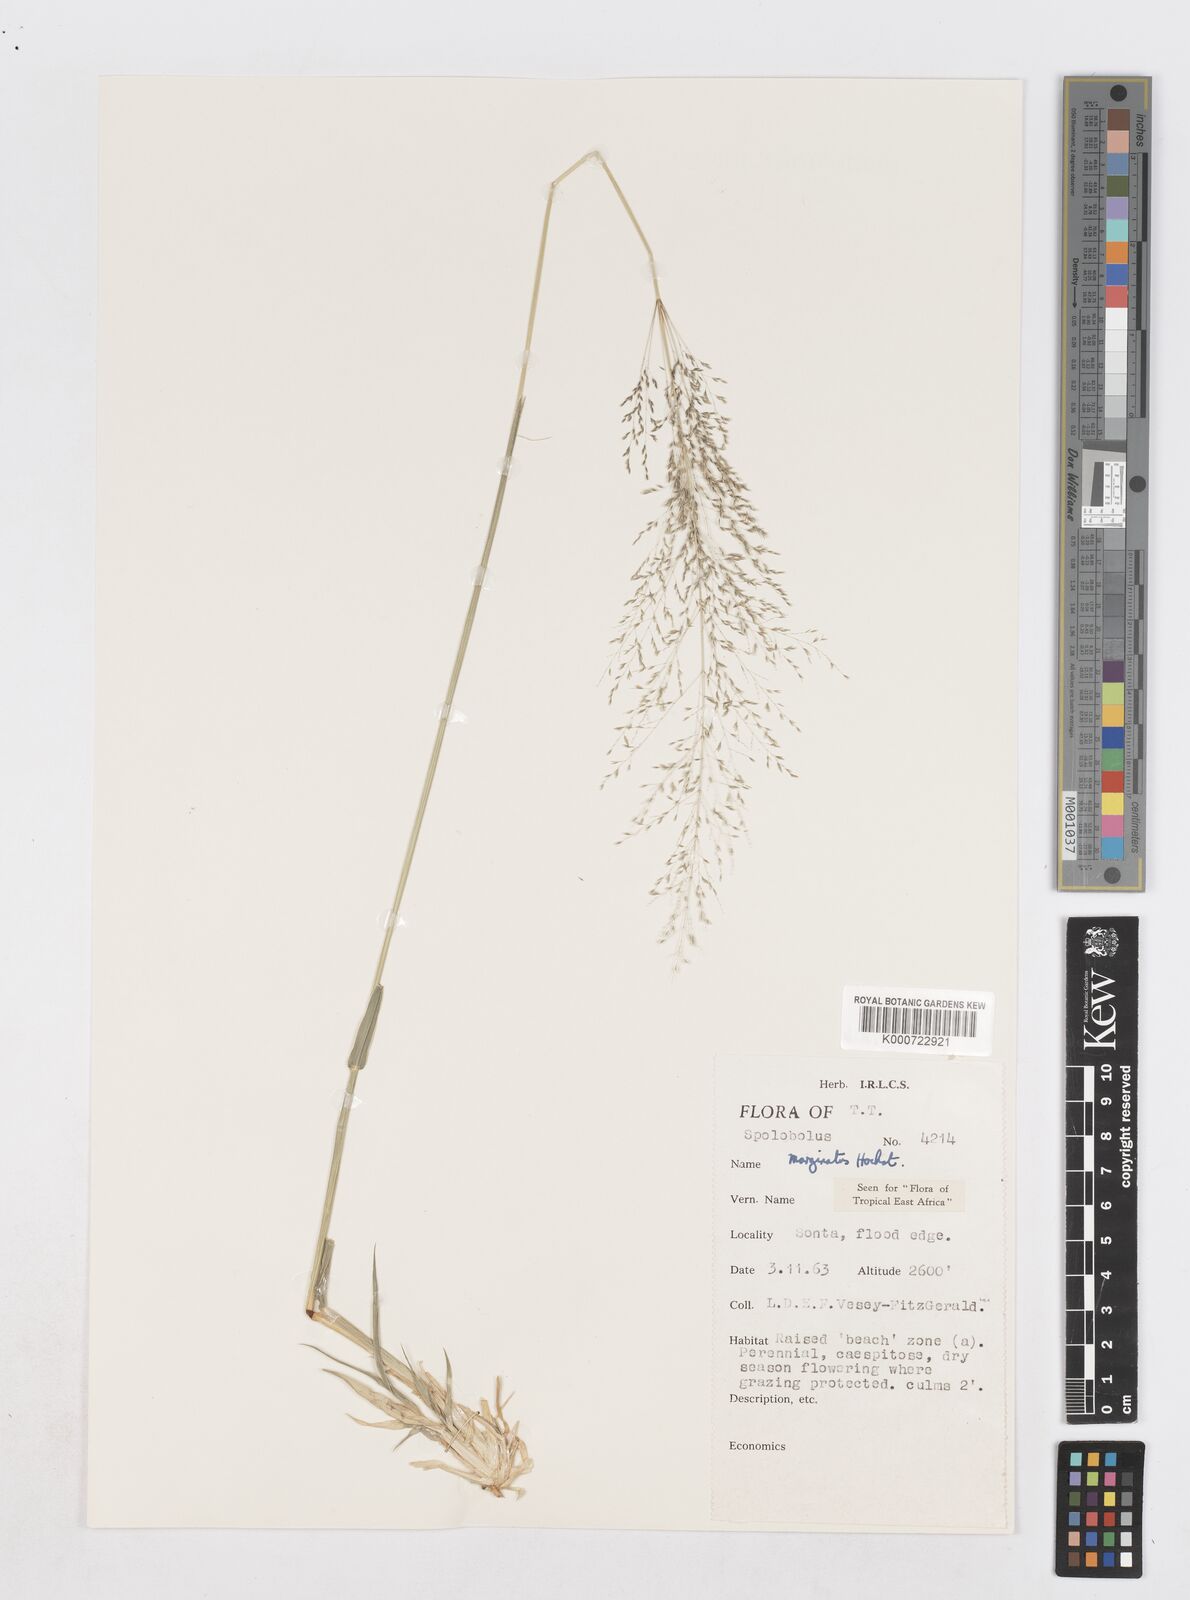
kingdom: Plantae
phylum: Tracheophyta
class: Liliopsida
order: Poales
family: Poaceae
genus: Sporobolus
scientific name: Sporobolus ioclados
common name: Pan dropseed
